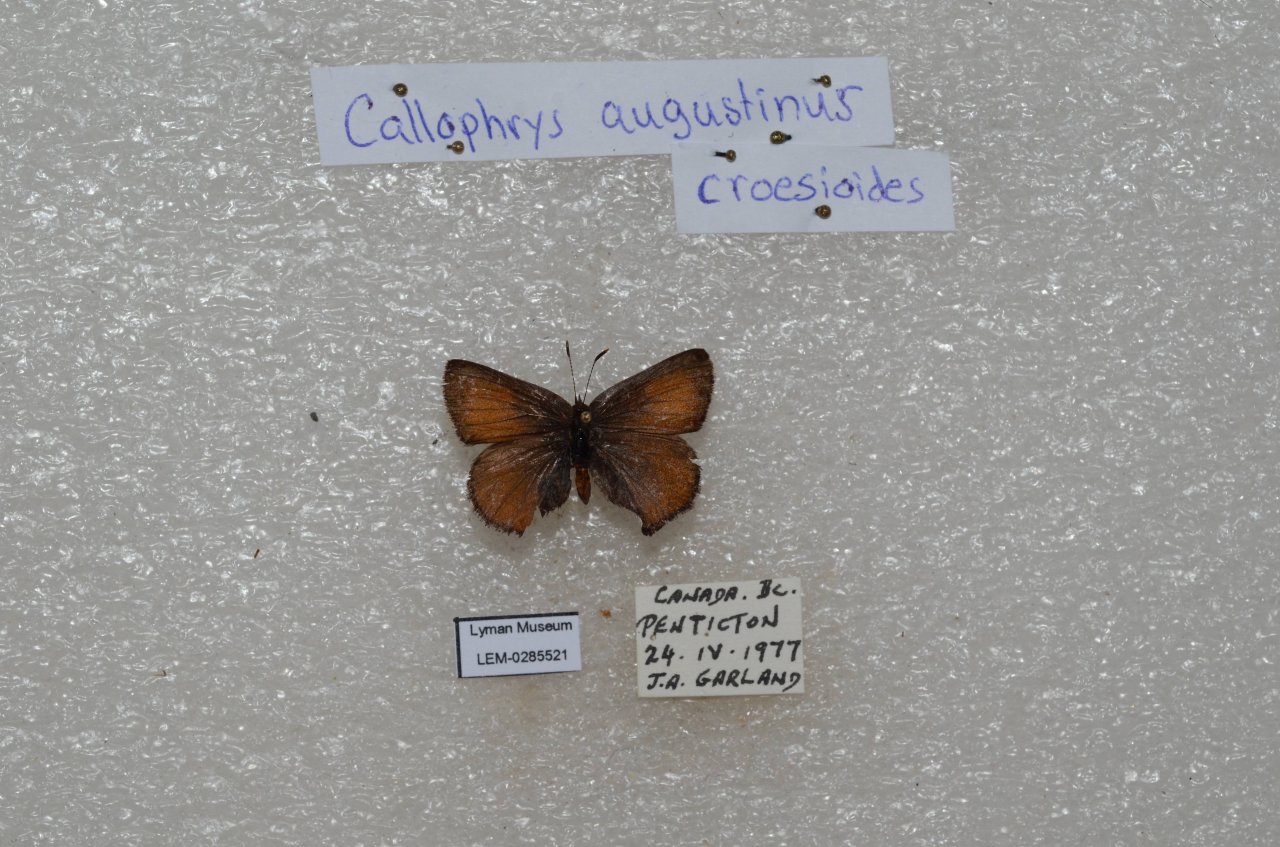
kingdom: Animalia
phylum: Arthropoda
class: Insecta
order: Lepidoptera
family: Lycaenidae
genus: Incisalia
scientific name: Incisalia irioides
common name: Brown Elfin
